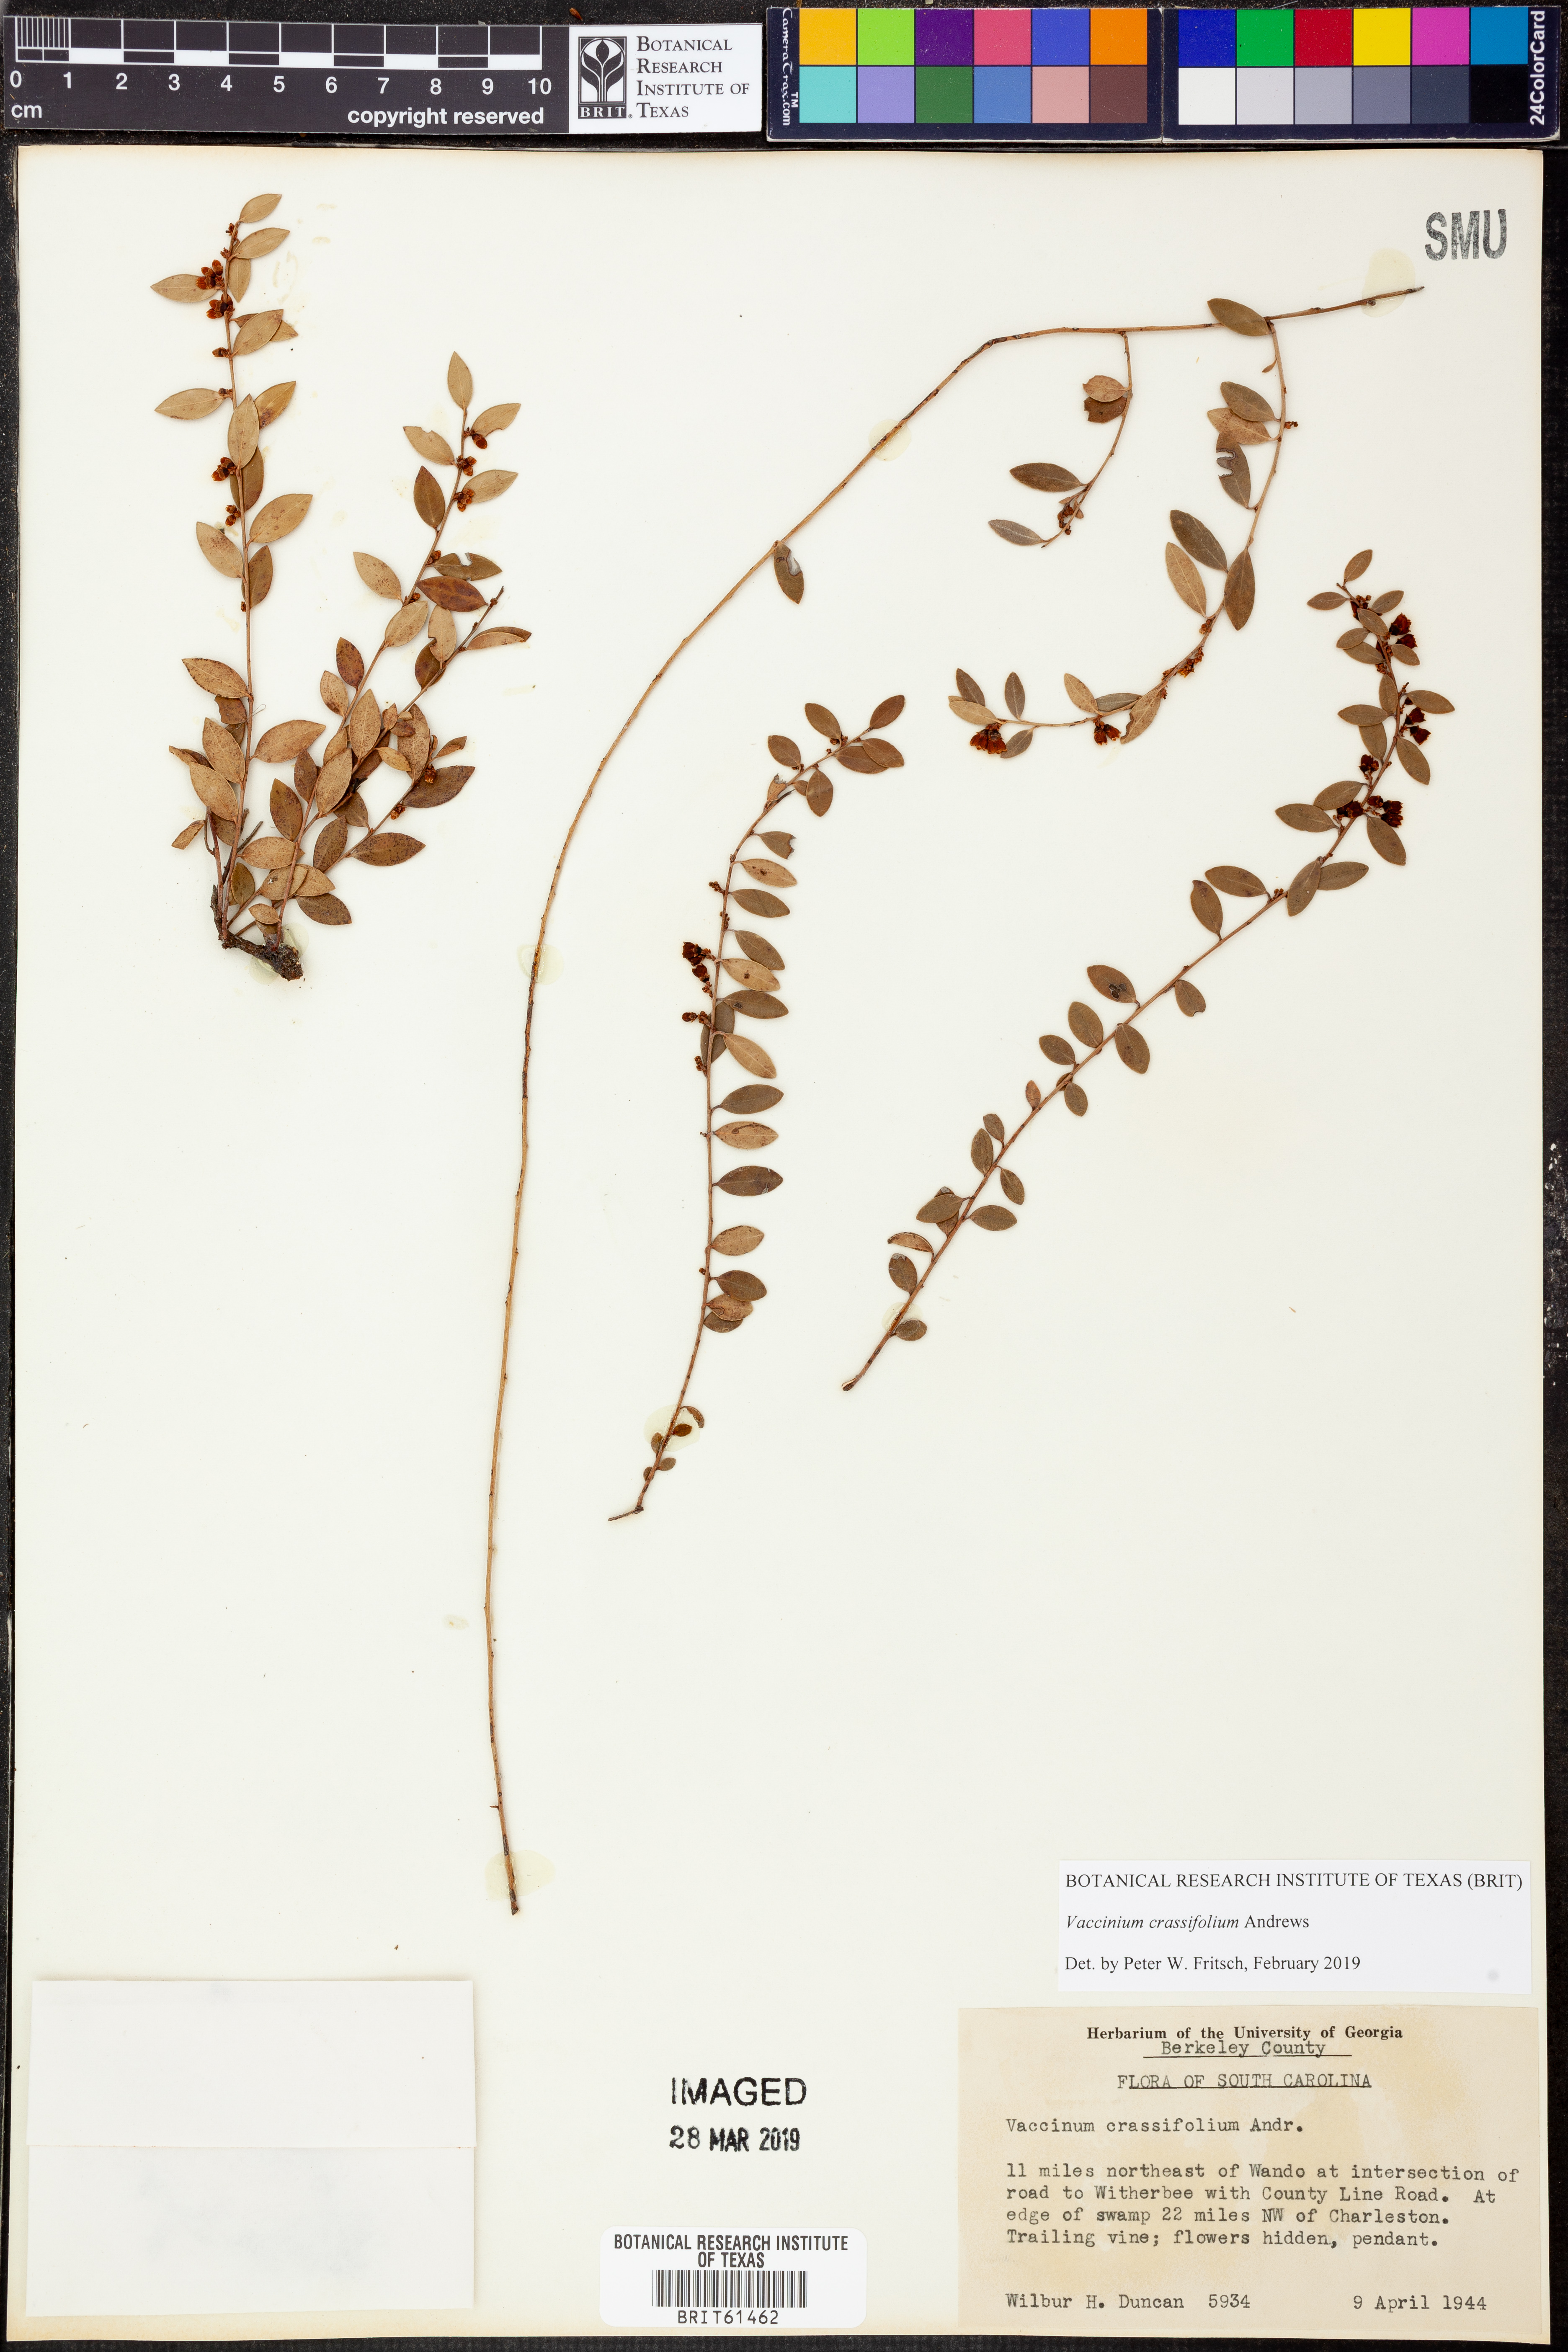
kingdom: Plantae
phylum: Tracheophyta
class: Magnoliopsida
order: Ericales
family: Ericaceae
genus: Vaccinium
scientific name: Vaccinium crassifolium
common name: Creeping blueberry
